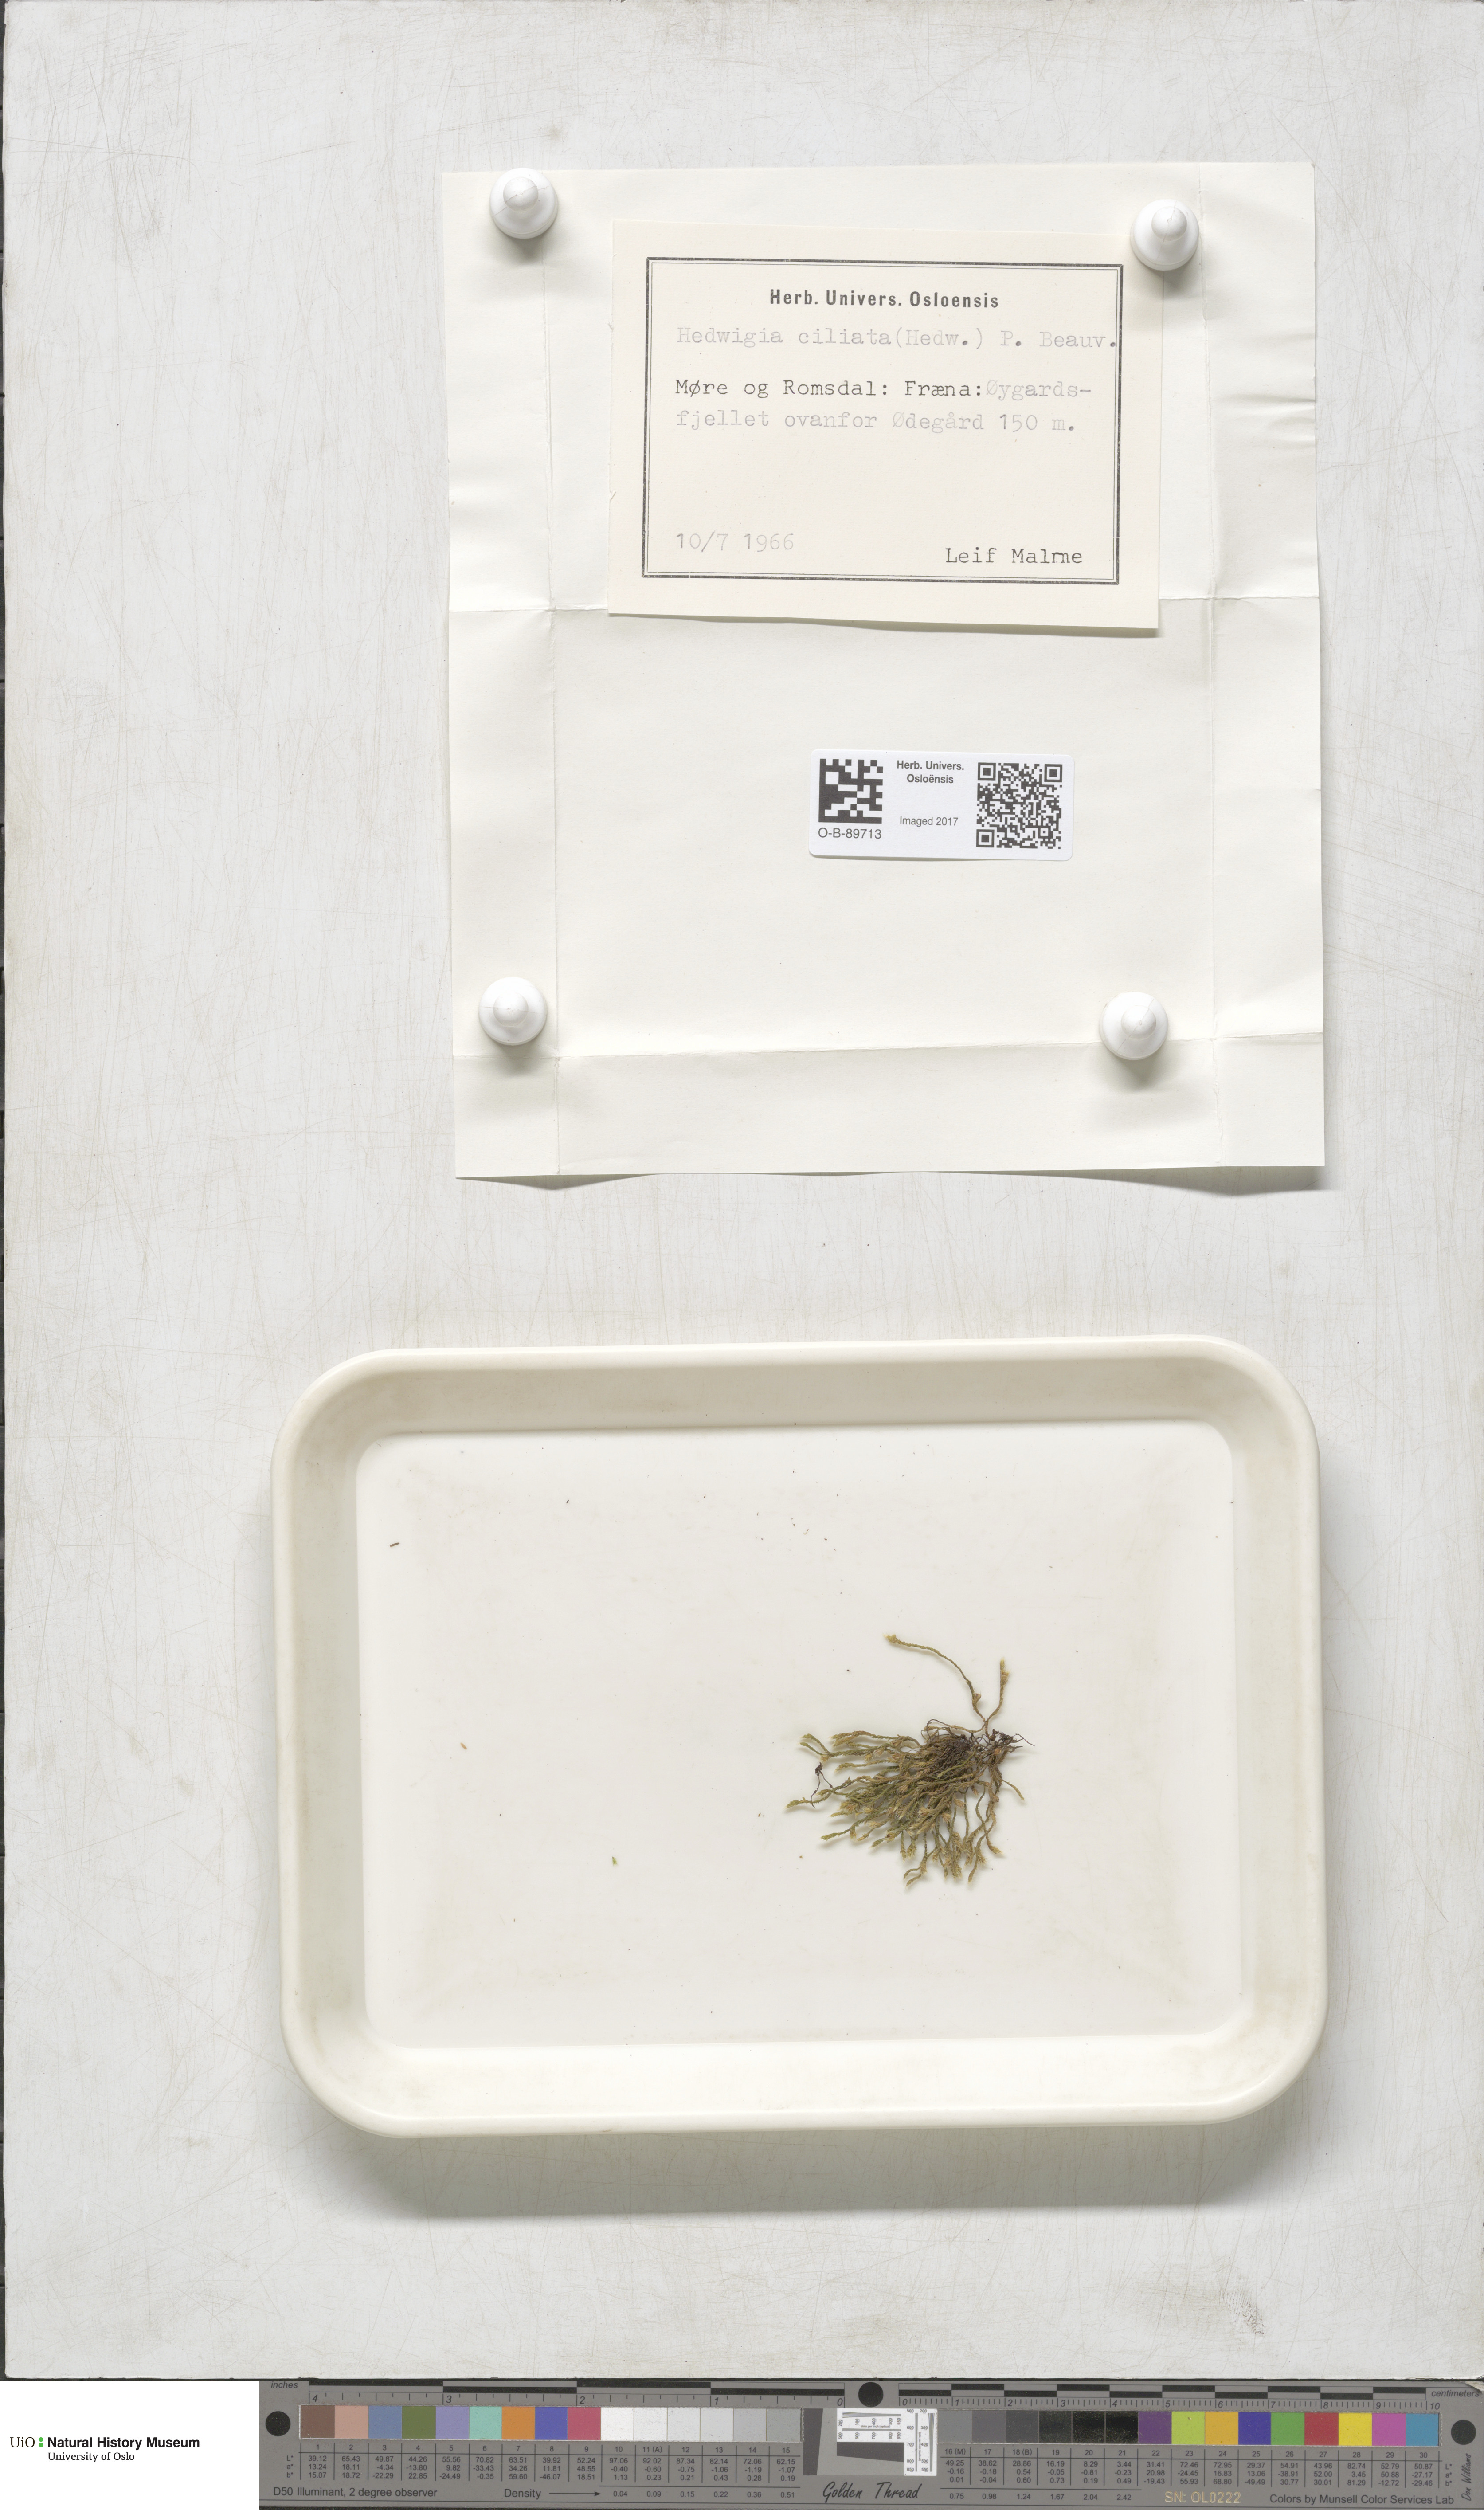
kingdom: Plantae
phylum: Bryophyta
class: Bryopsida
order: Hedwigiales
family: Hedwigiaceae
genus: Hedwigia
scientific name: Hedwigia ciliata
